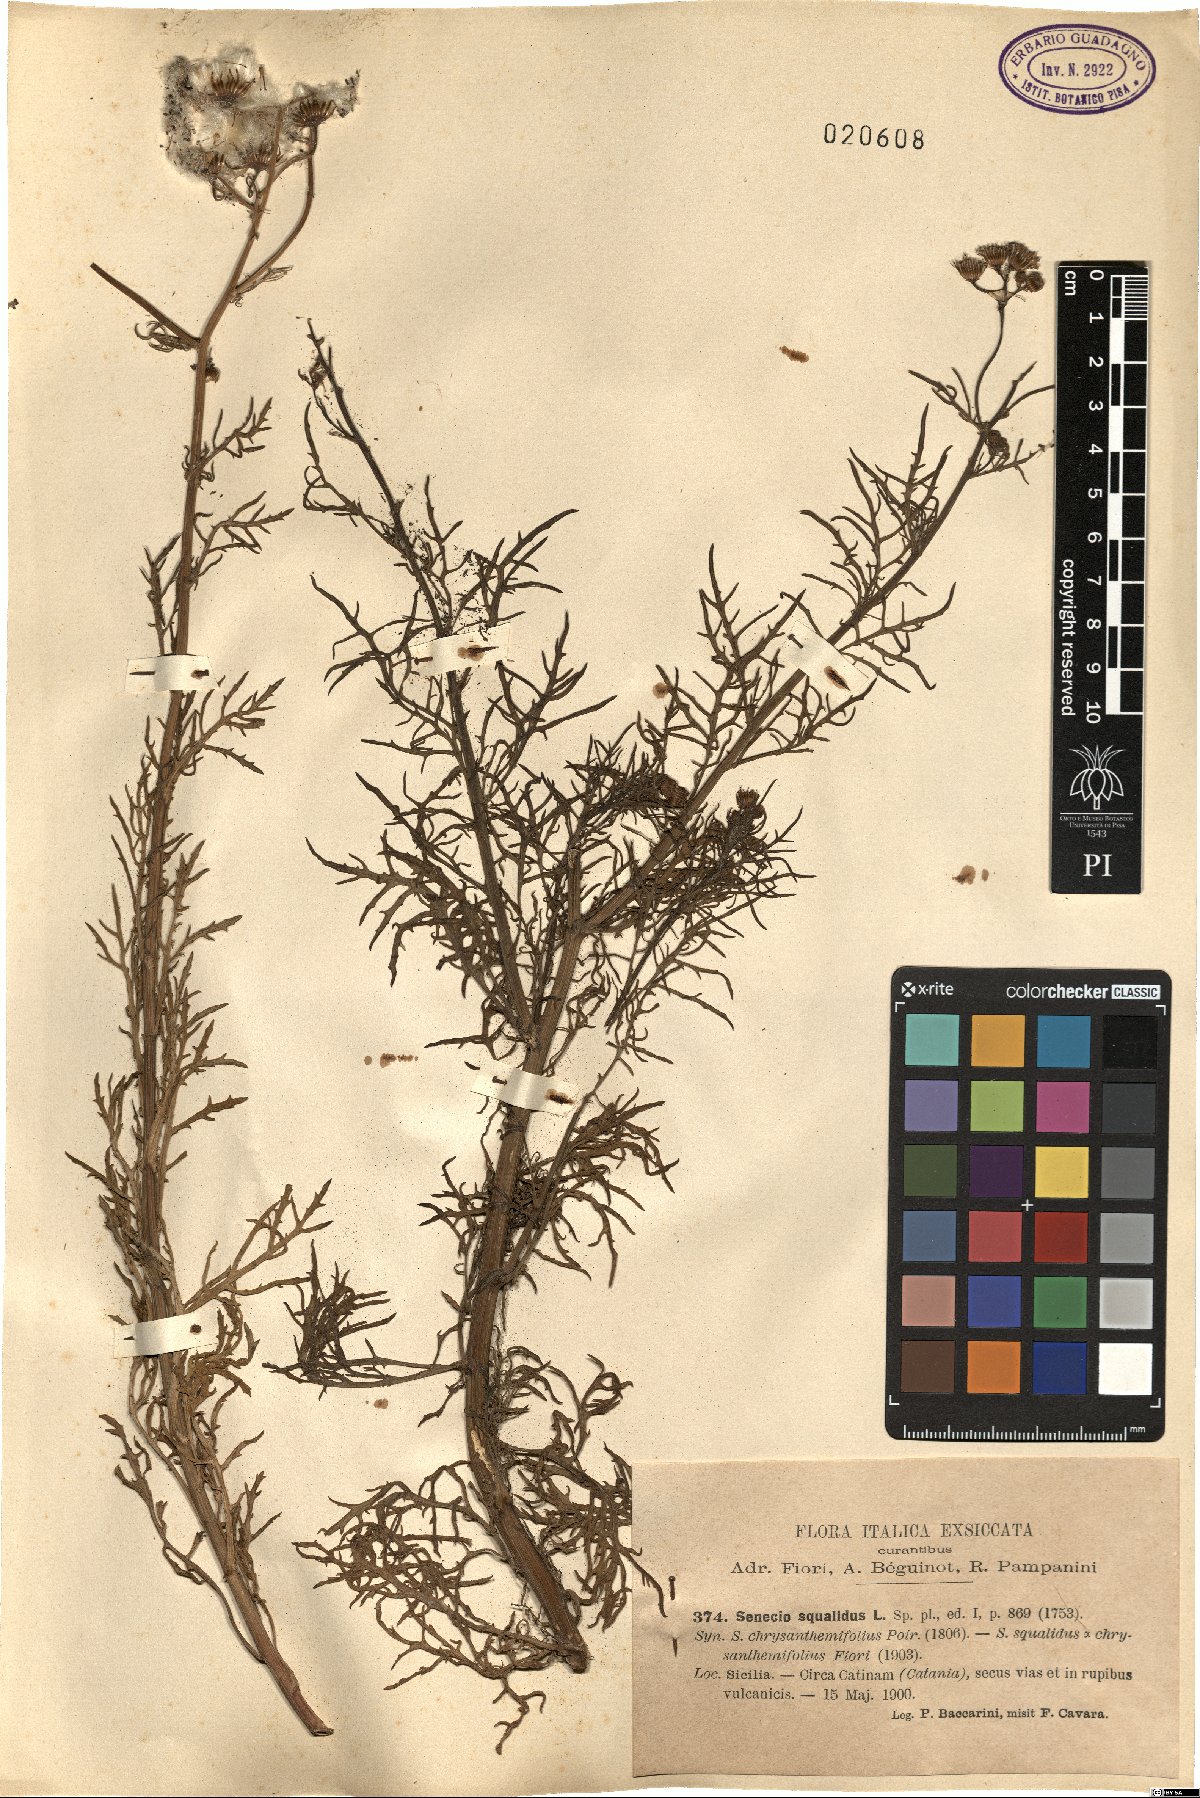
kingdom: Plantae
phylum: Tracheophyta
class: Magnoliopsida
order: Asterales
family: Asteraceae
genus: Senecio
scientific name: Senecio squalidus
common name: Oxford ragwort
